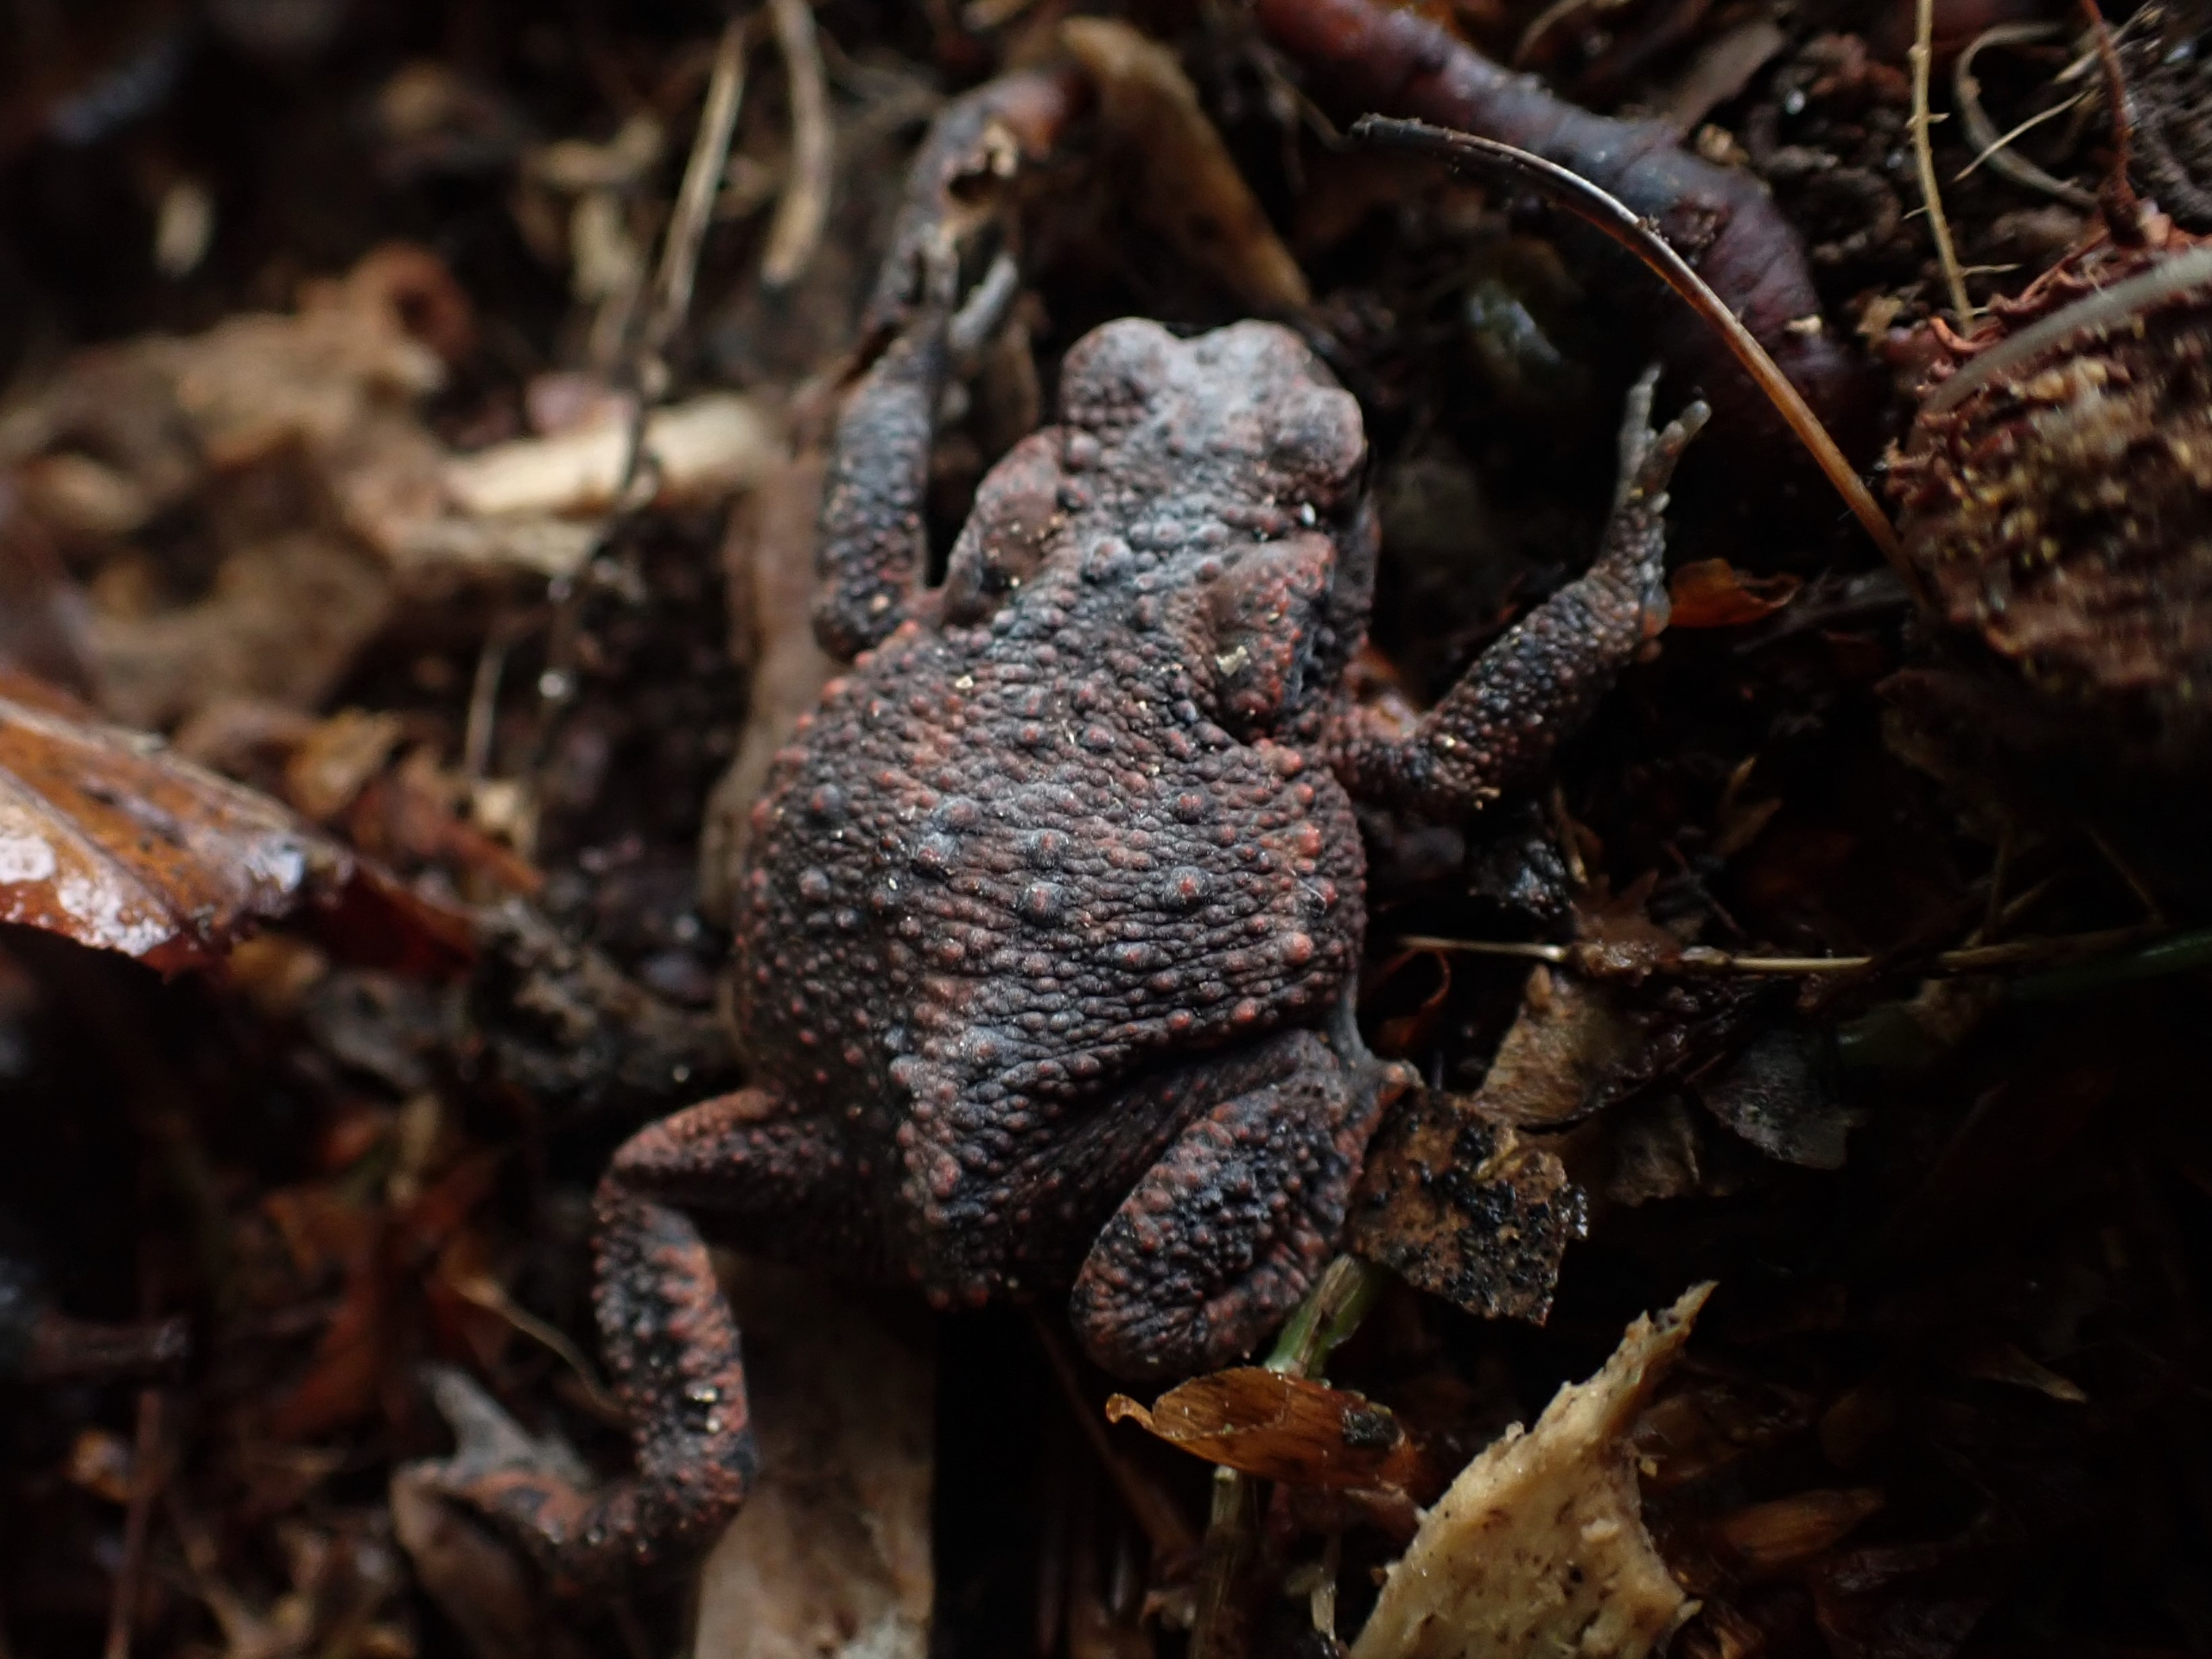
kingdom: Animalia
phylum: Chordata
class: Amphibia
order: Anura
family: Bufonidae
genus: Bufo
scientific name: Bufo bufo
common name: Skrubtudse
